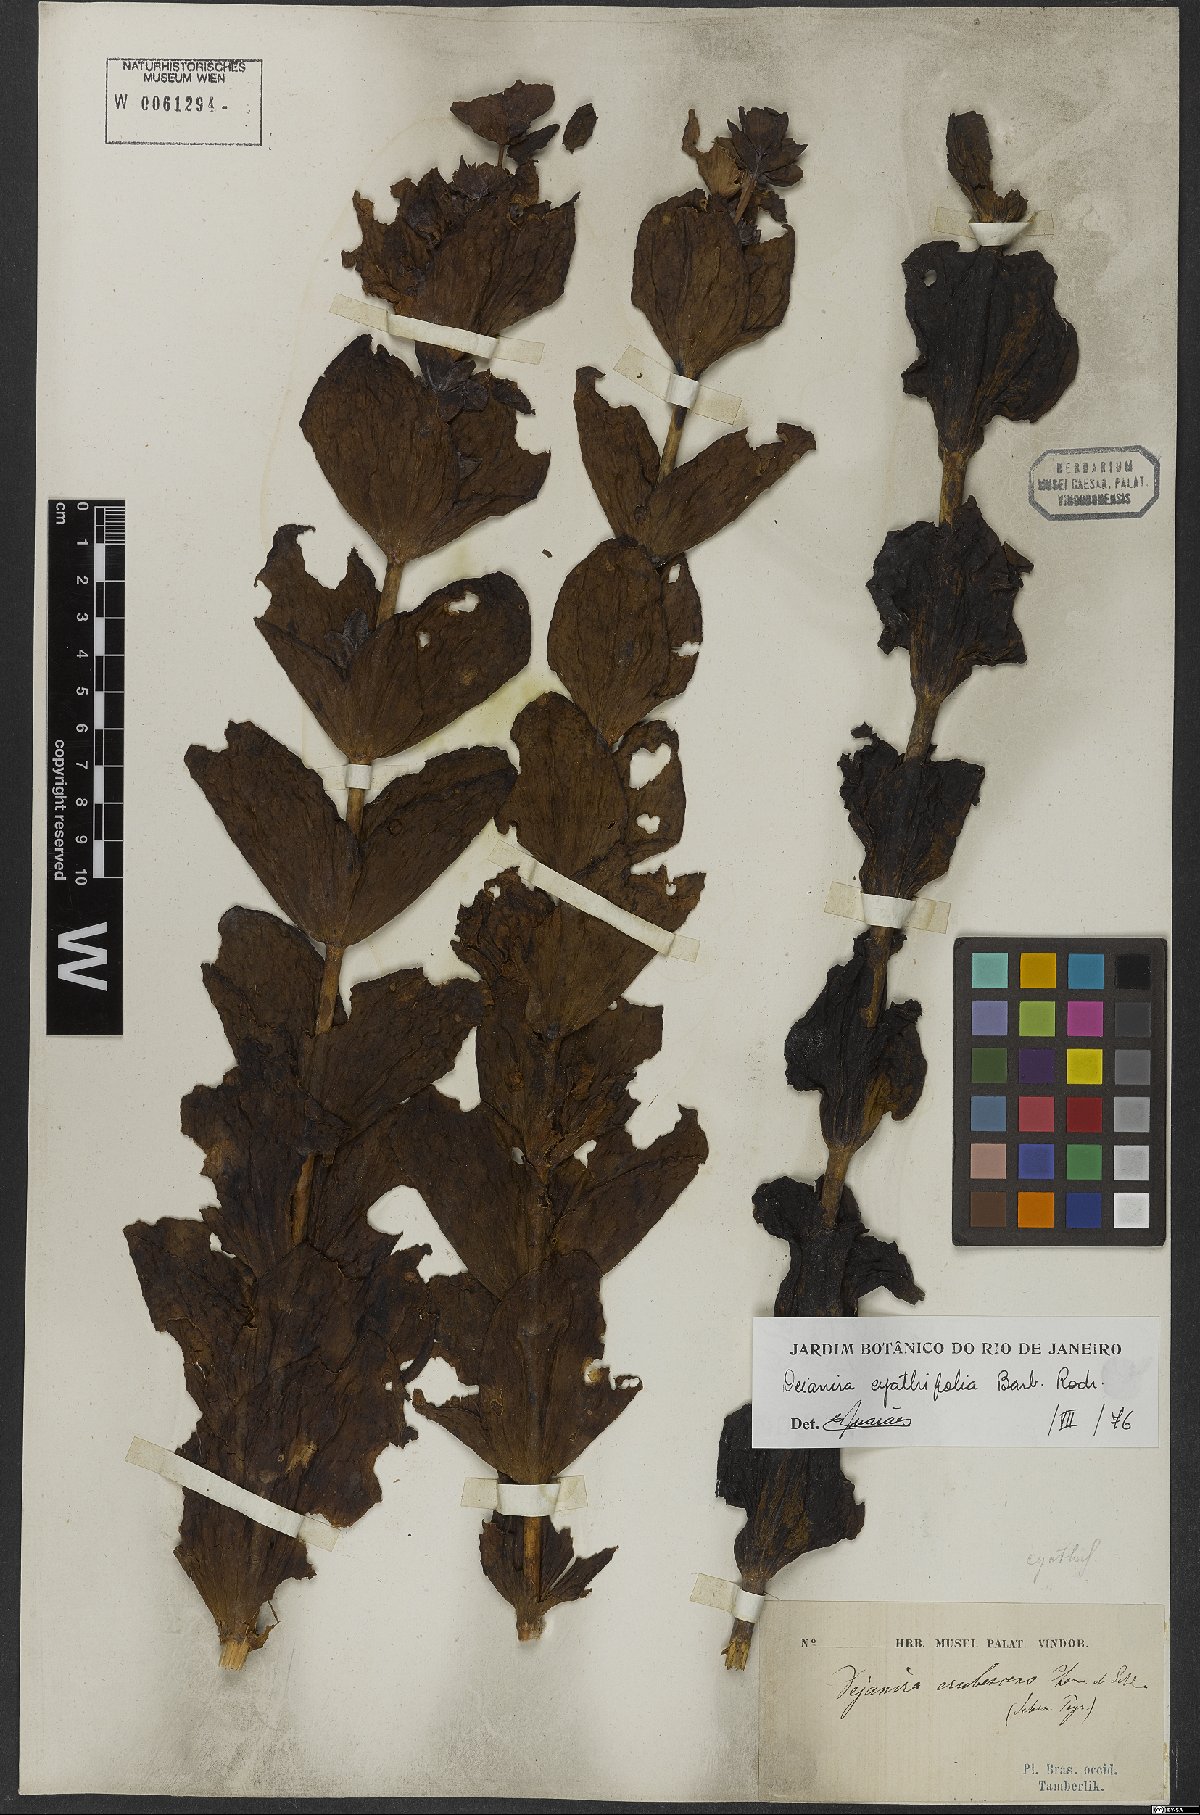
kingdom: Plantae
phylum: Tracheophyta
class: Magnoliopsida
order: Gentianales
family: Gentianaceae
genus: Deianira
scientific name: Deianira cyathifolia
